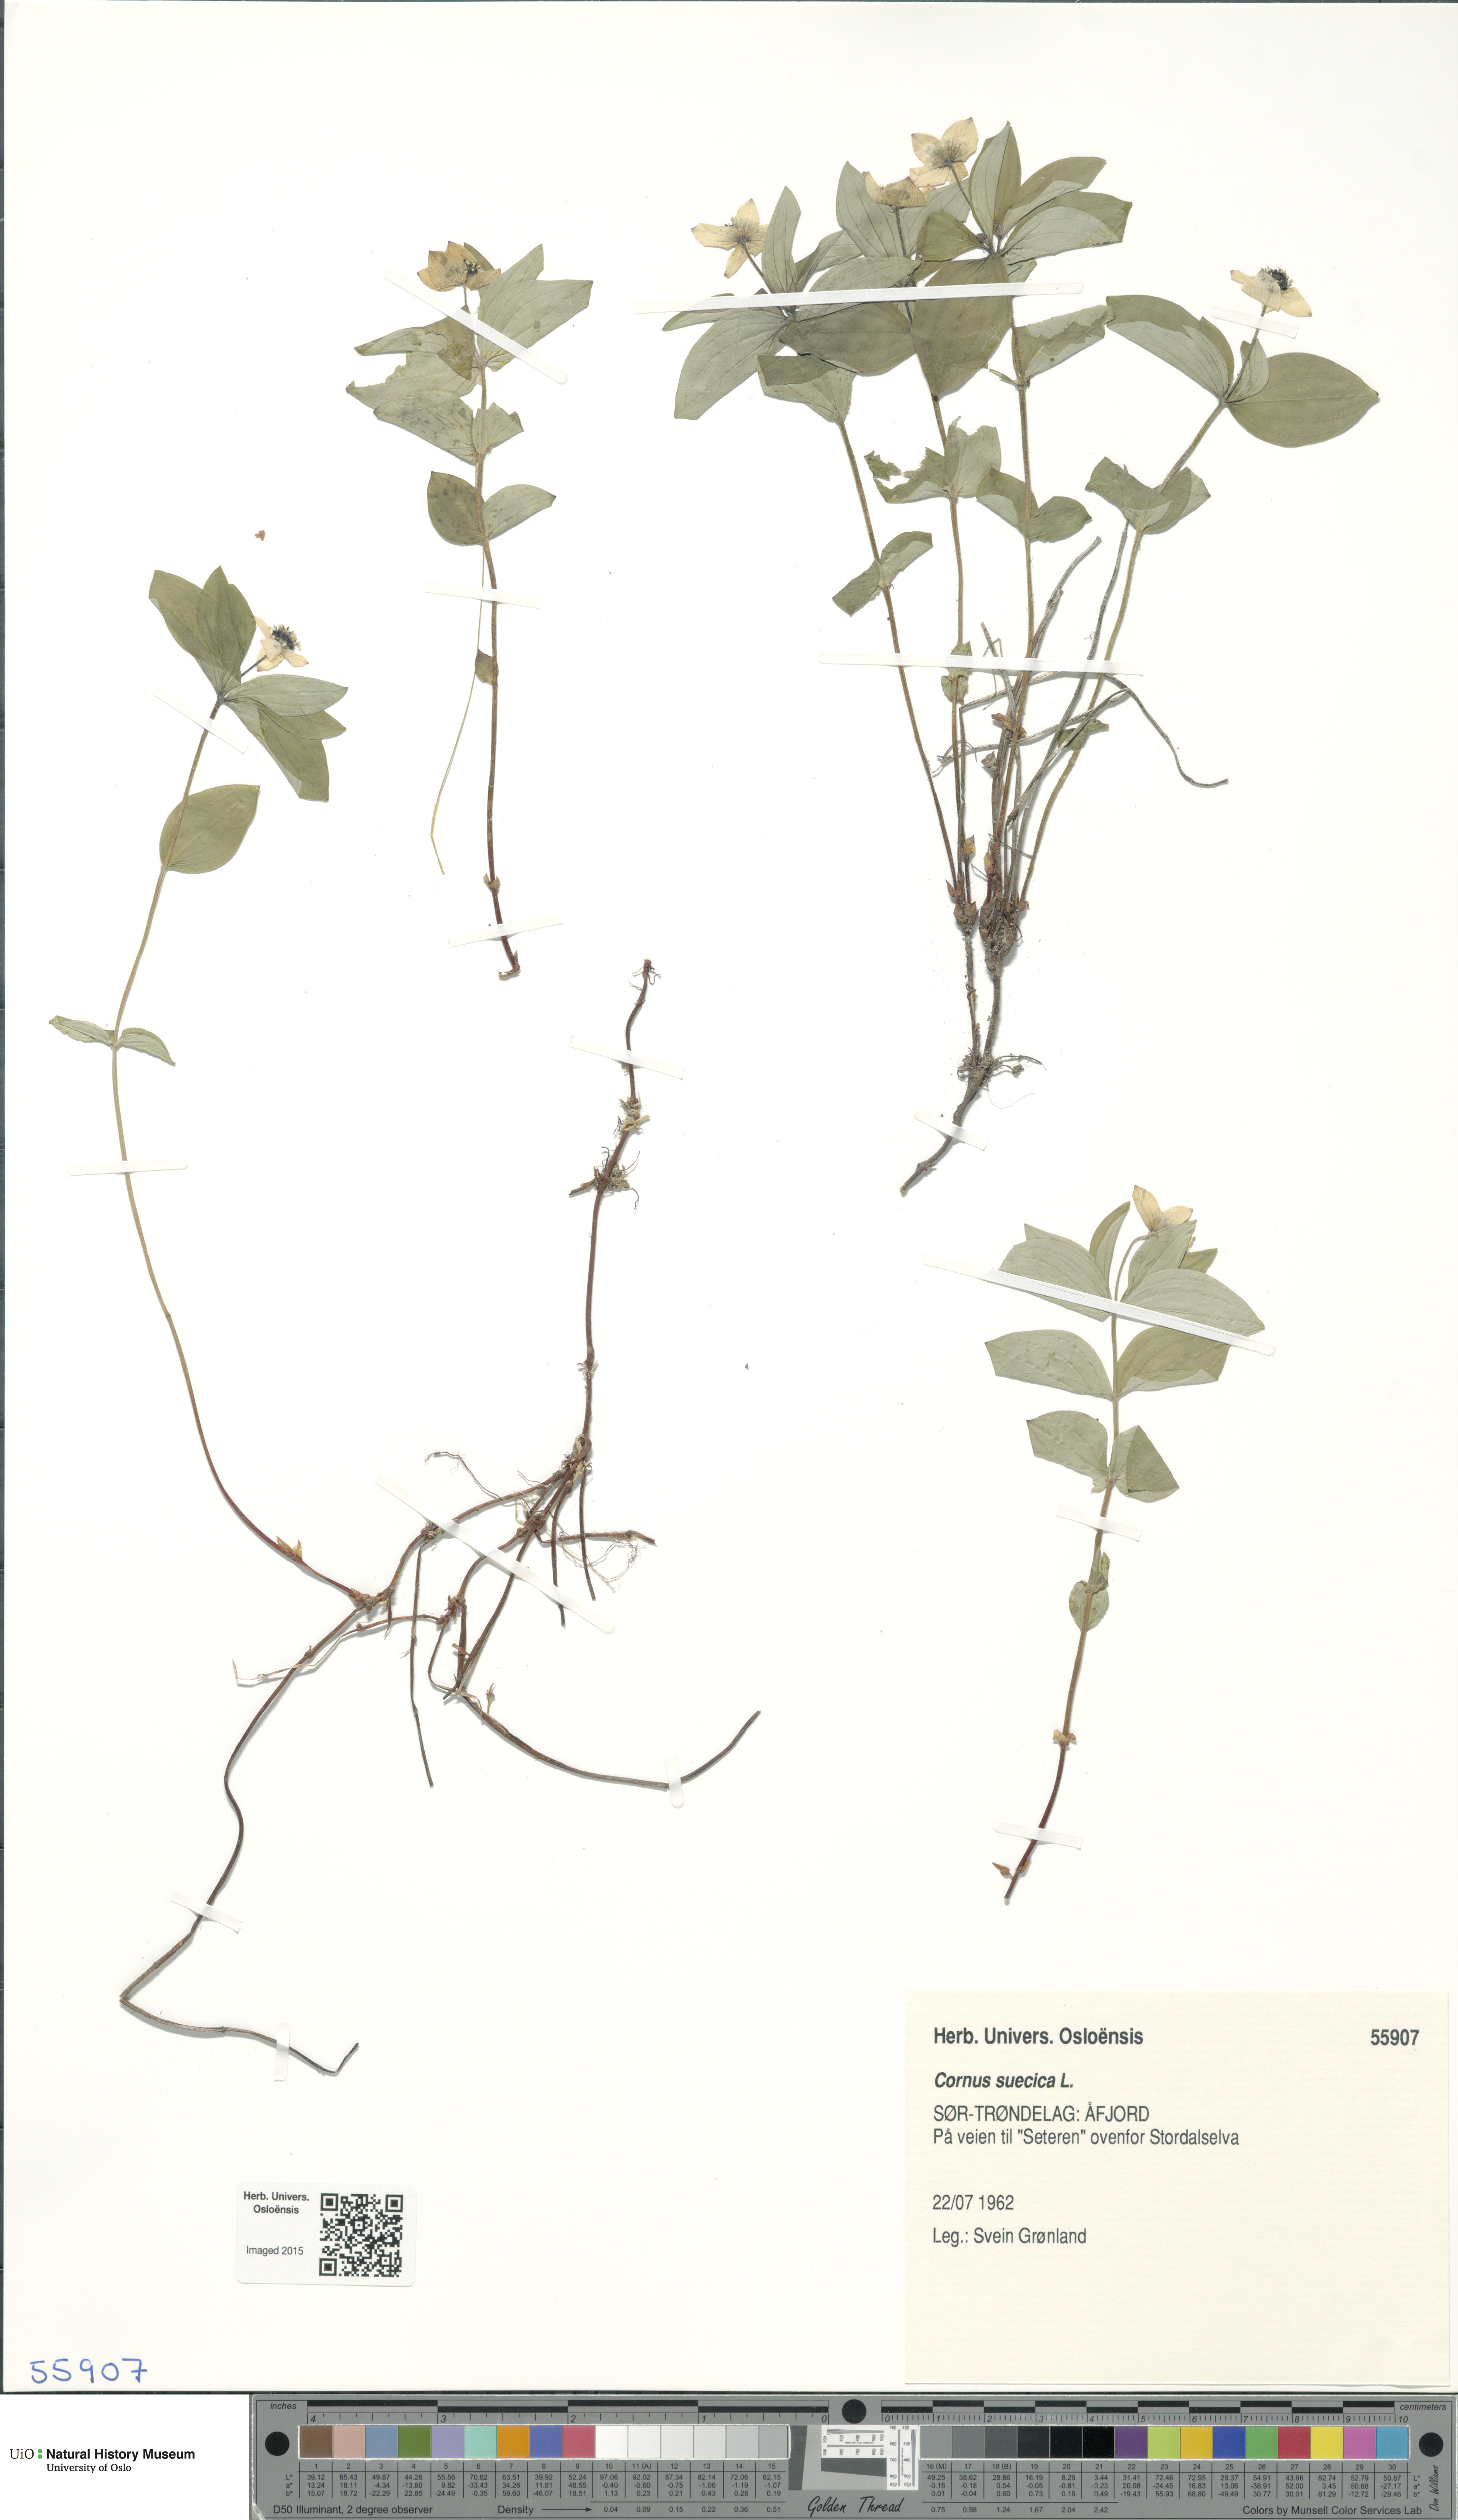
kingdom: Plantae
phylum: Tracheophyta
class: Magnoliopsida
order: Cornales
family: Cornaceae
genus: Cornus
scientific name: Cornus suecica
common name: Dwarf cornel
